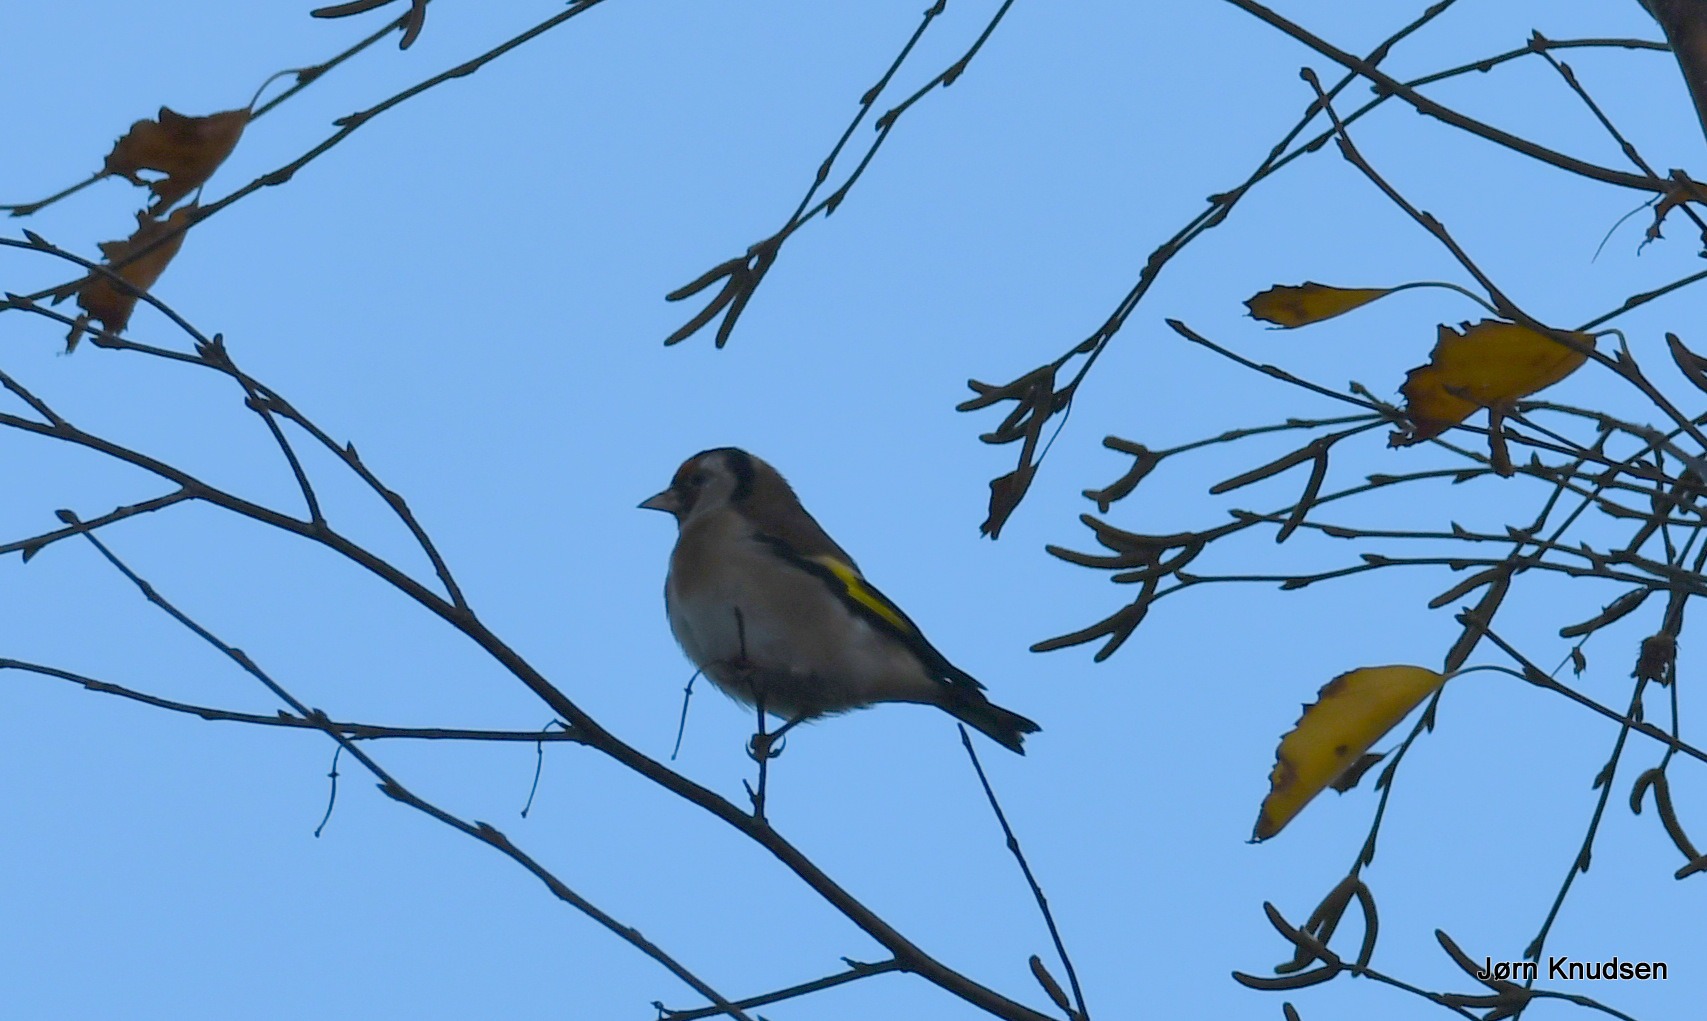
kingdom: Animalia
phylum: Chordata
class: Aves
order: Passeriformes
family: Fringillidae
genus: Carduelis
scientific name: Carduelis carduelis
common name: Stillits
